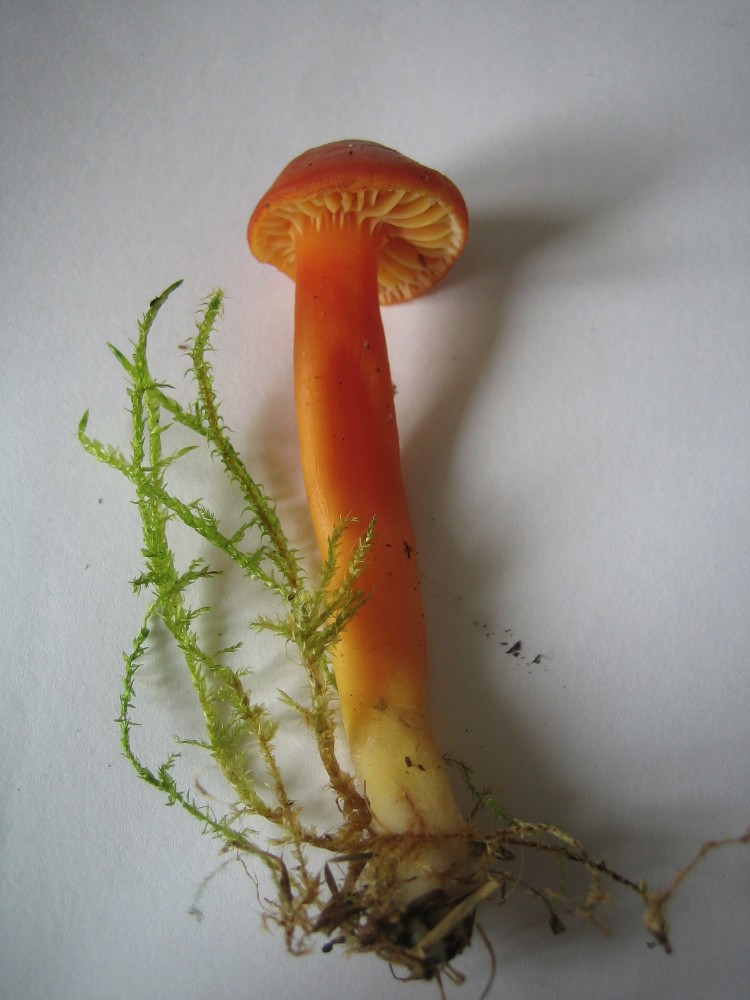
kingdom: Fungi
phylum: Basidiomycota
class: Agaricomycetes
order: Agaricales
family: Hygrophoraceae
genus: Hygrocybe
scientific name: Hygrocybe
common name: vokshat
